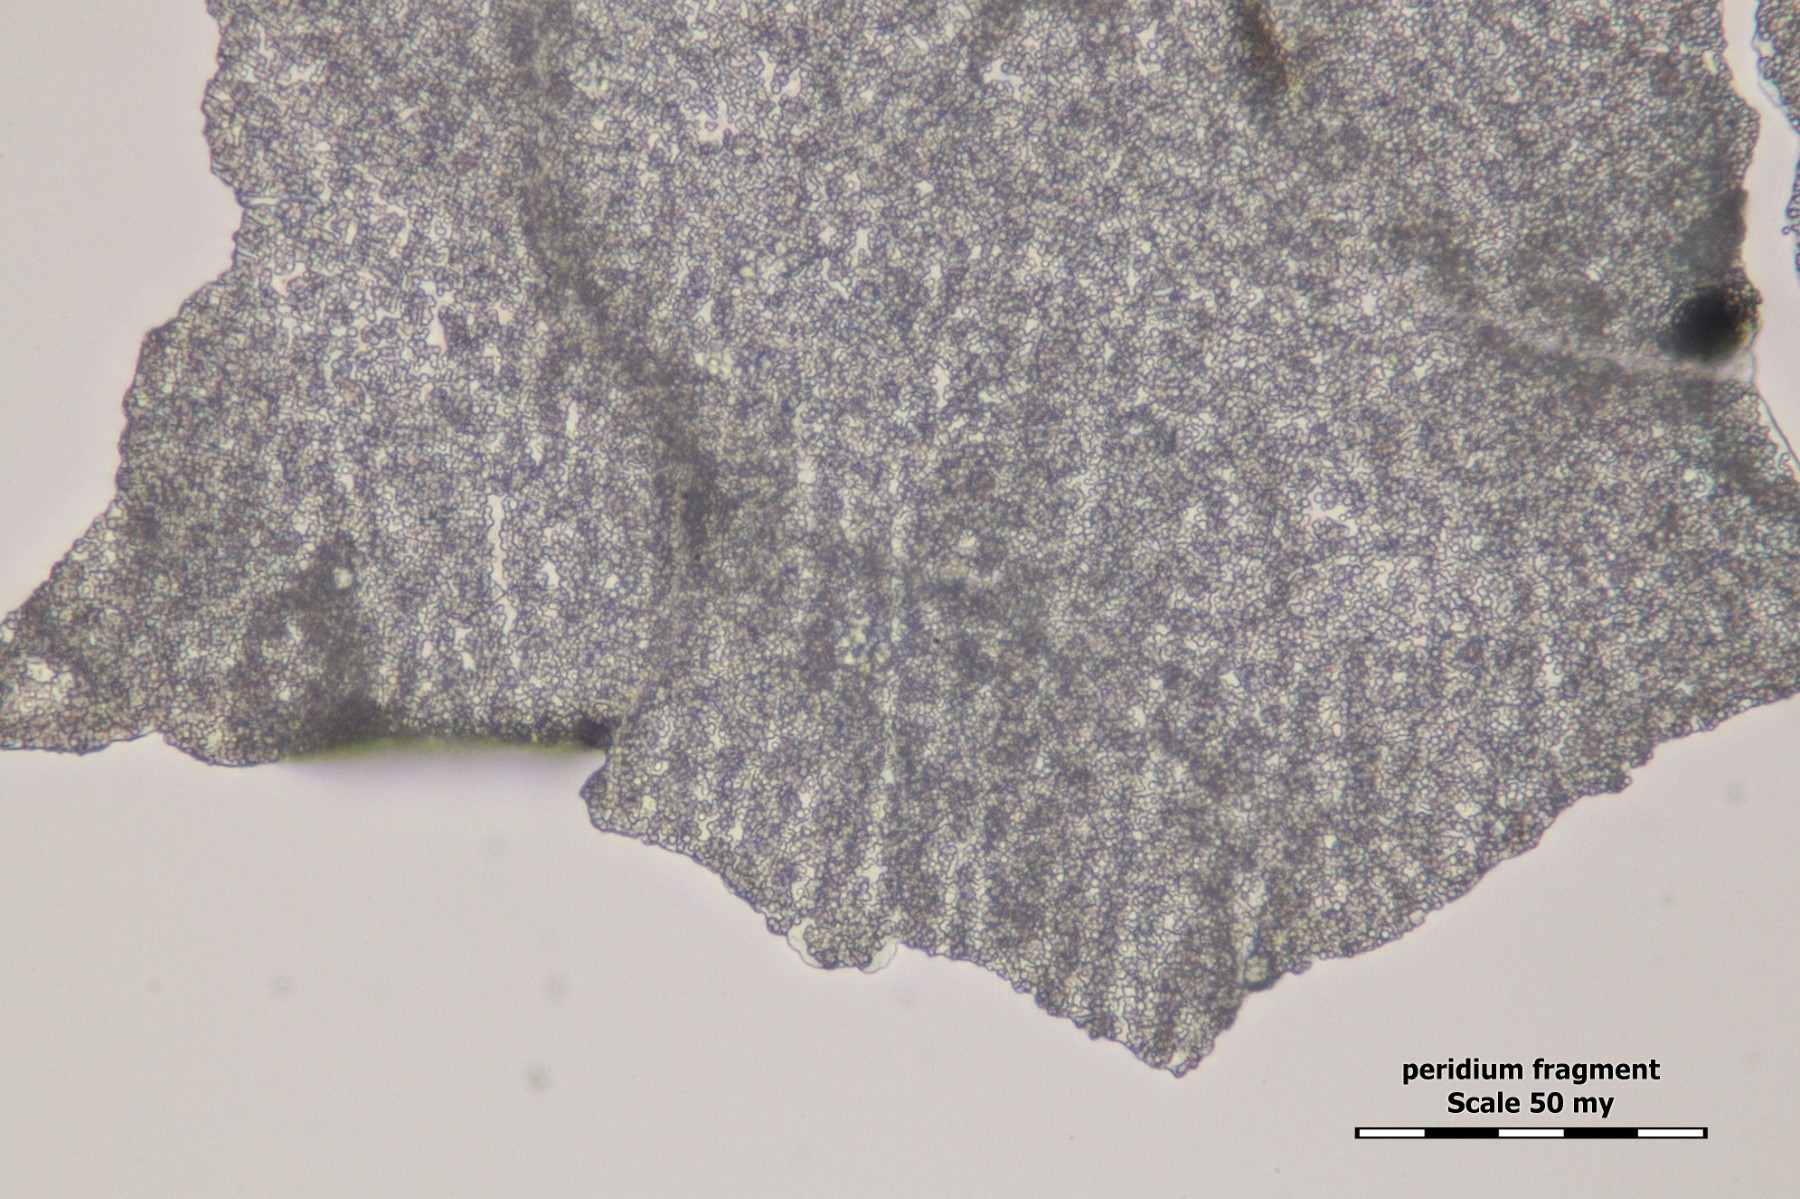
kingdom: Protozoa
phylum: Mycetozoa
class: Myxomycetes
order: Physarales
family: Physaraceae
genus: Badhamia
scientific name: Badhamia capsulifera
